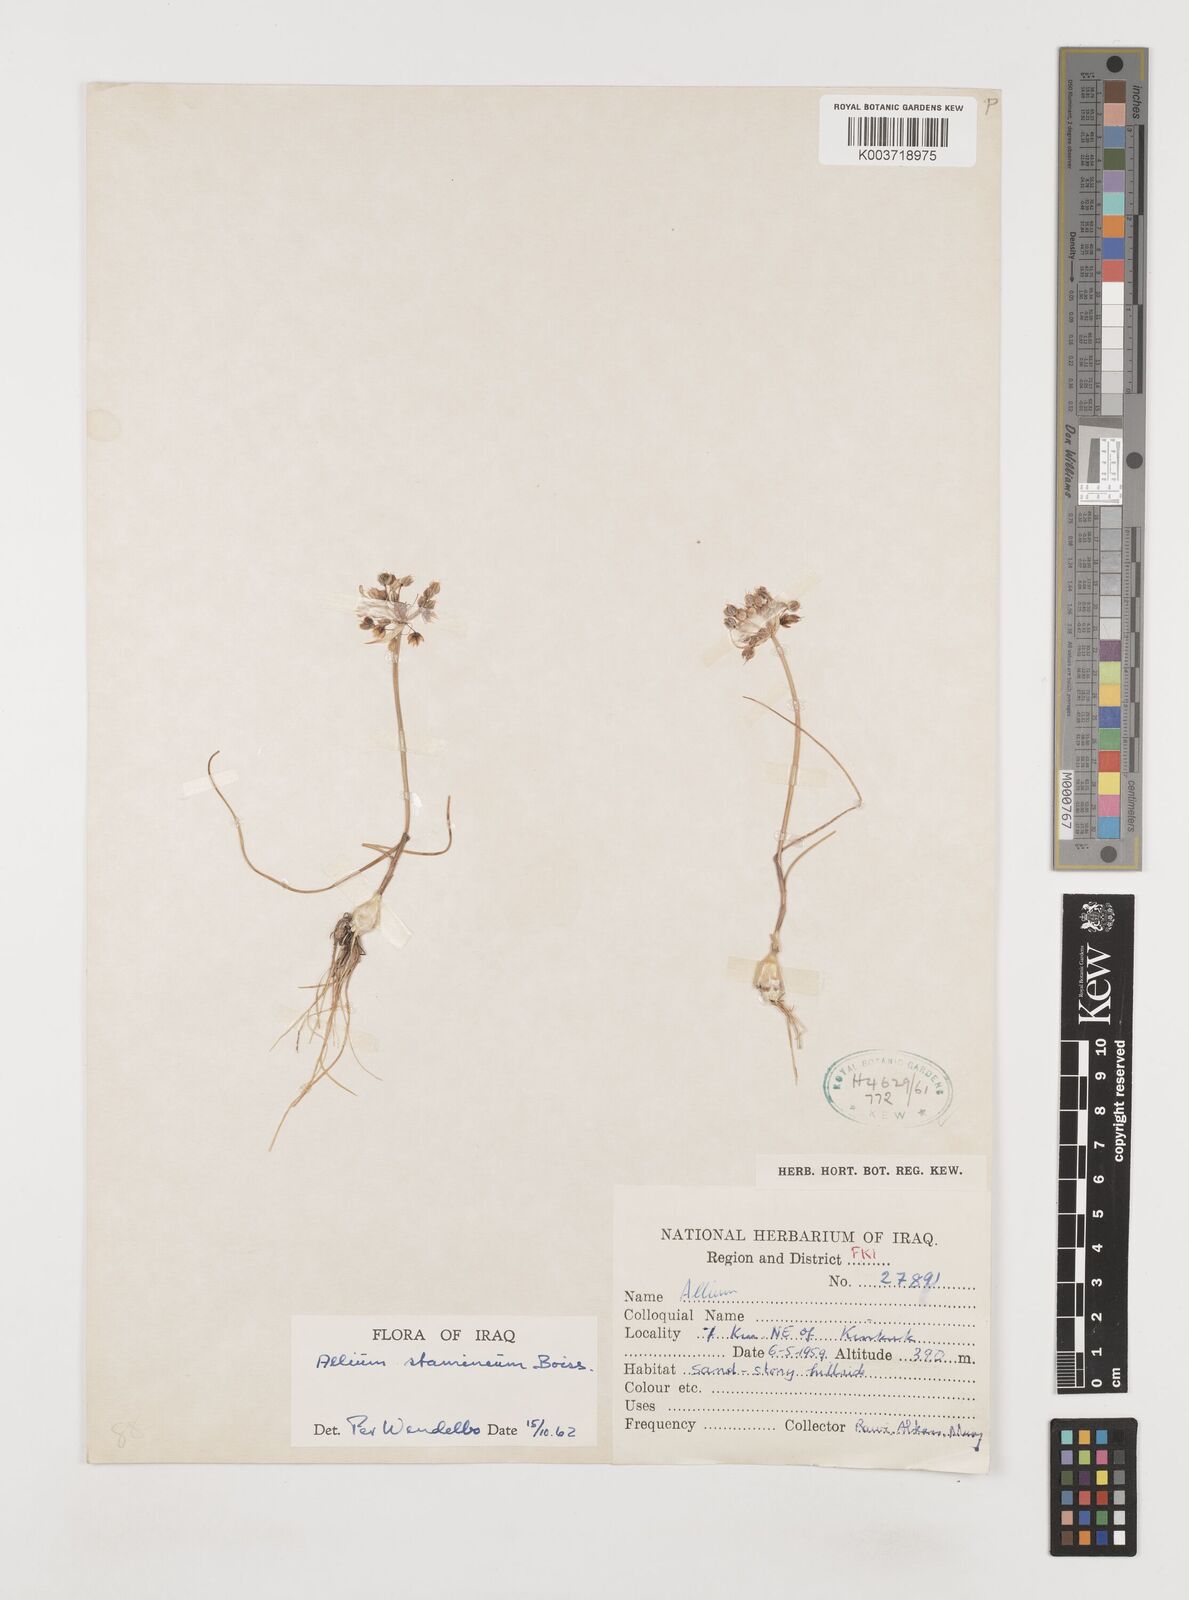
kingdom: Plantae
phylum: Tracheophyta
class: Liliopsida
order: Asparagales
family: Amaryllidaceae
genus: Allium
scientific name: Allium stamineum
